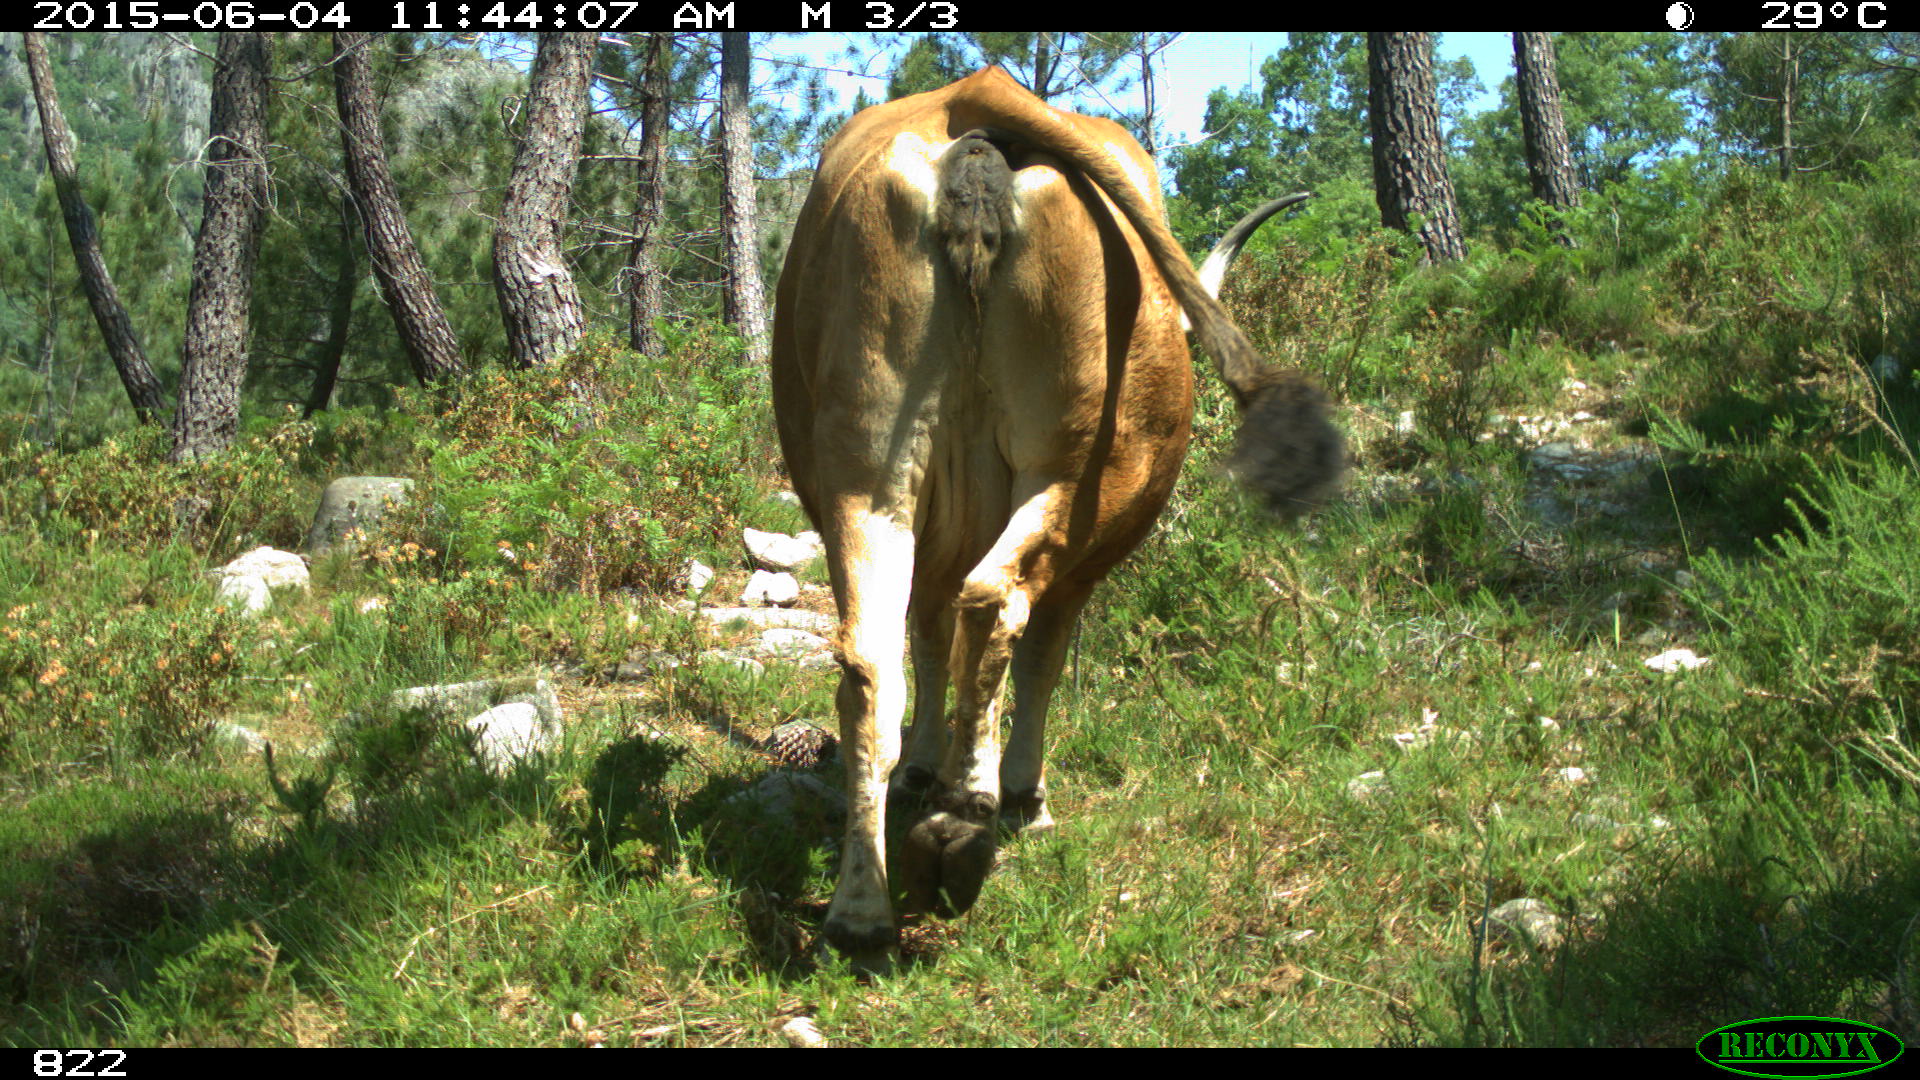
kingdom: Animalia
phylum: Chordata
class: Mammalia
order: Artiodactyla
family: Bovidae
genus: Bos
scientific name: Bos taurus
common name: Domesticated cattle
